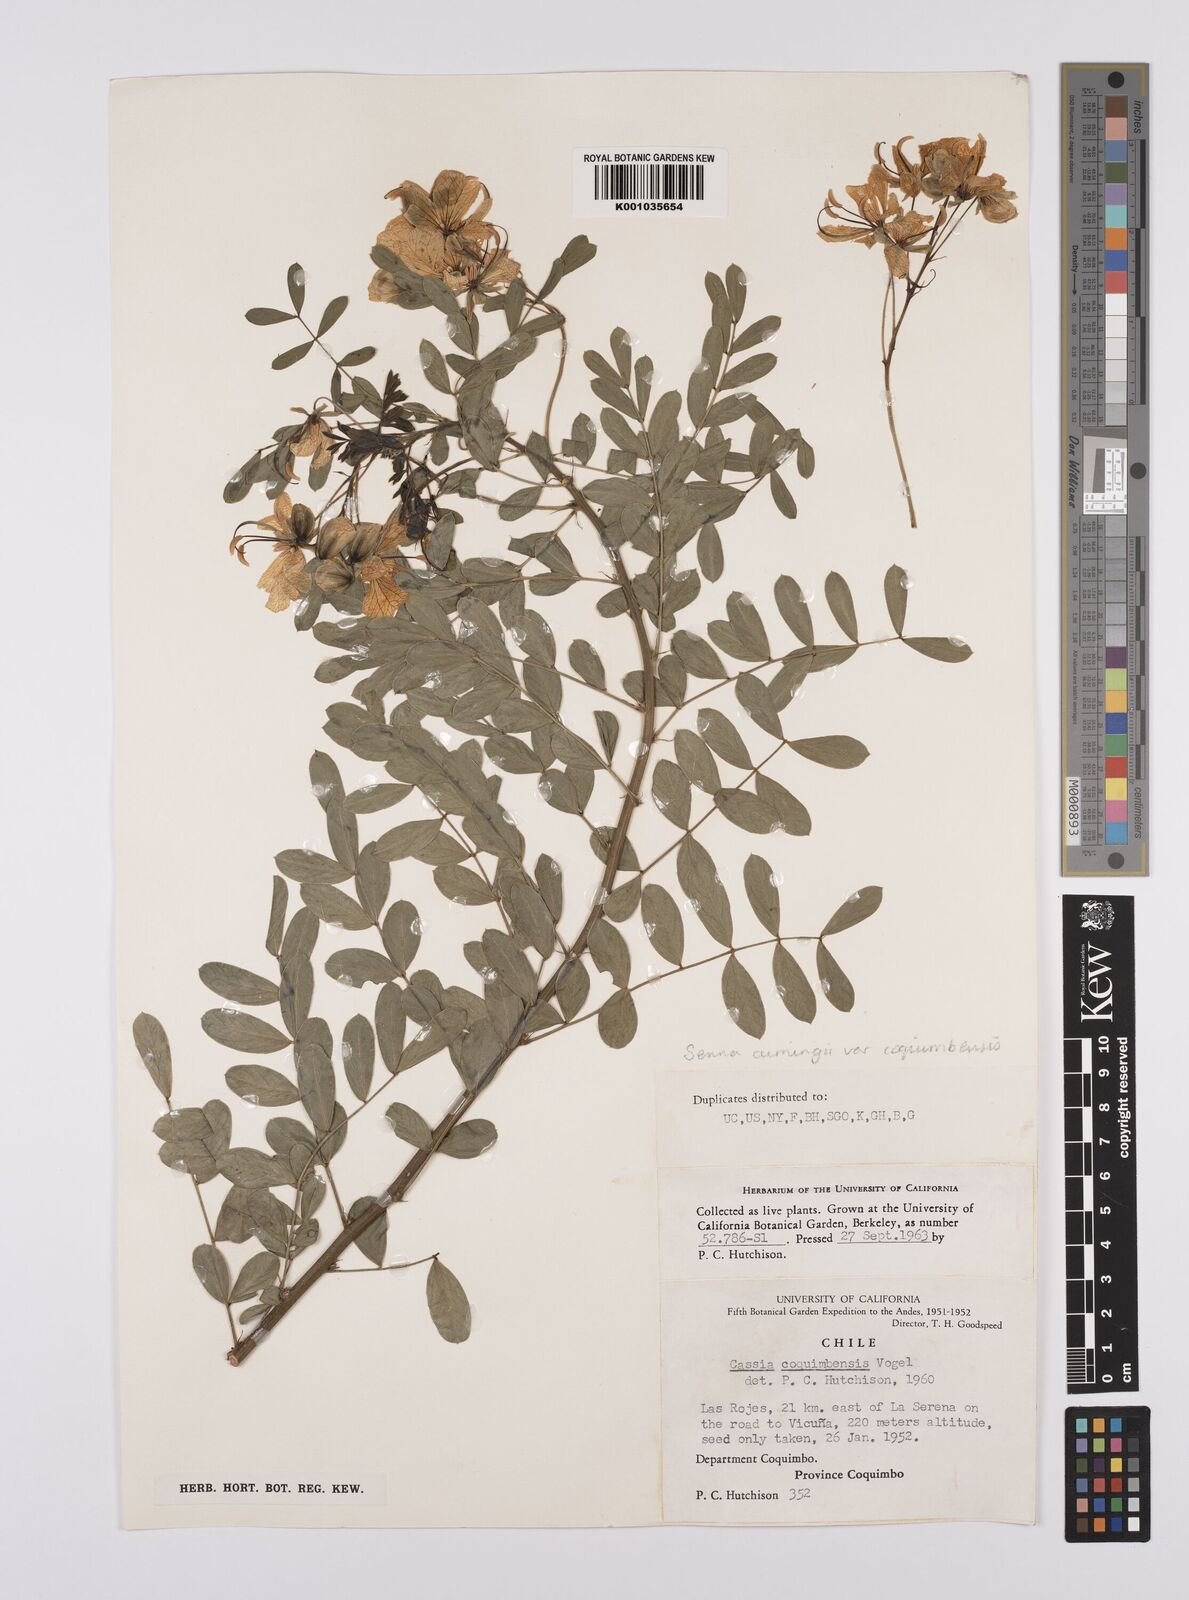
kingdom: Plantae
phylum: Tracheophyta
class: Magnoliopsida
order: Fabales
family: Fabaceae
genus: Senna
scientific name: Senna cumingii
